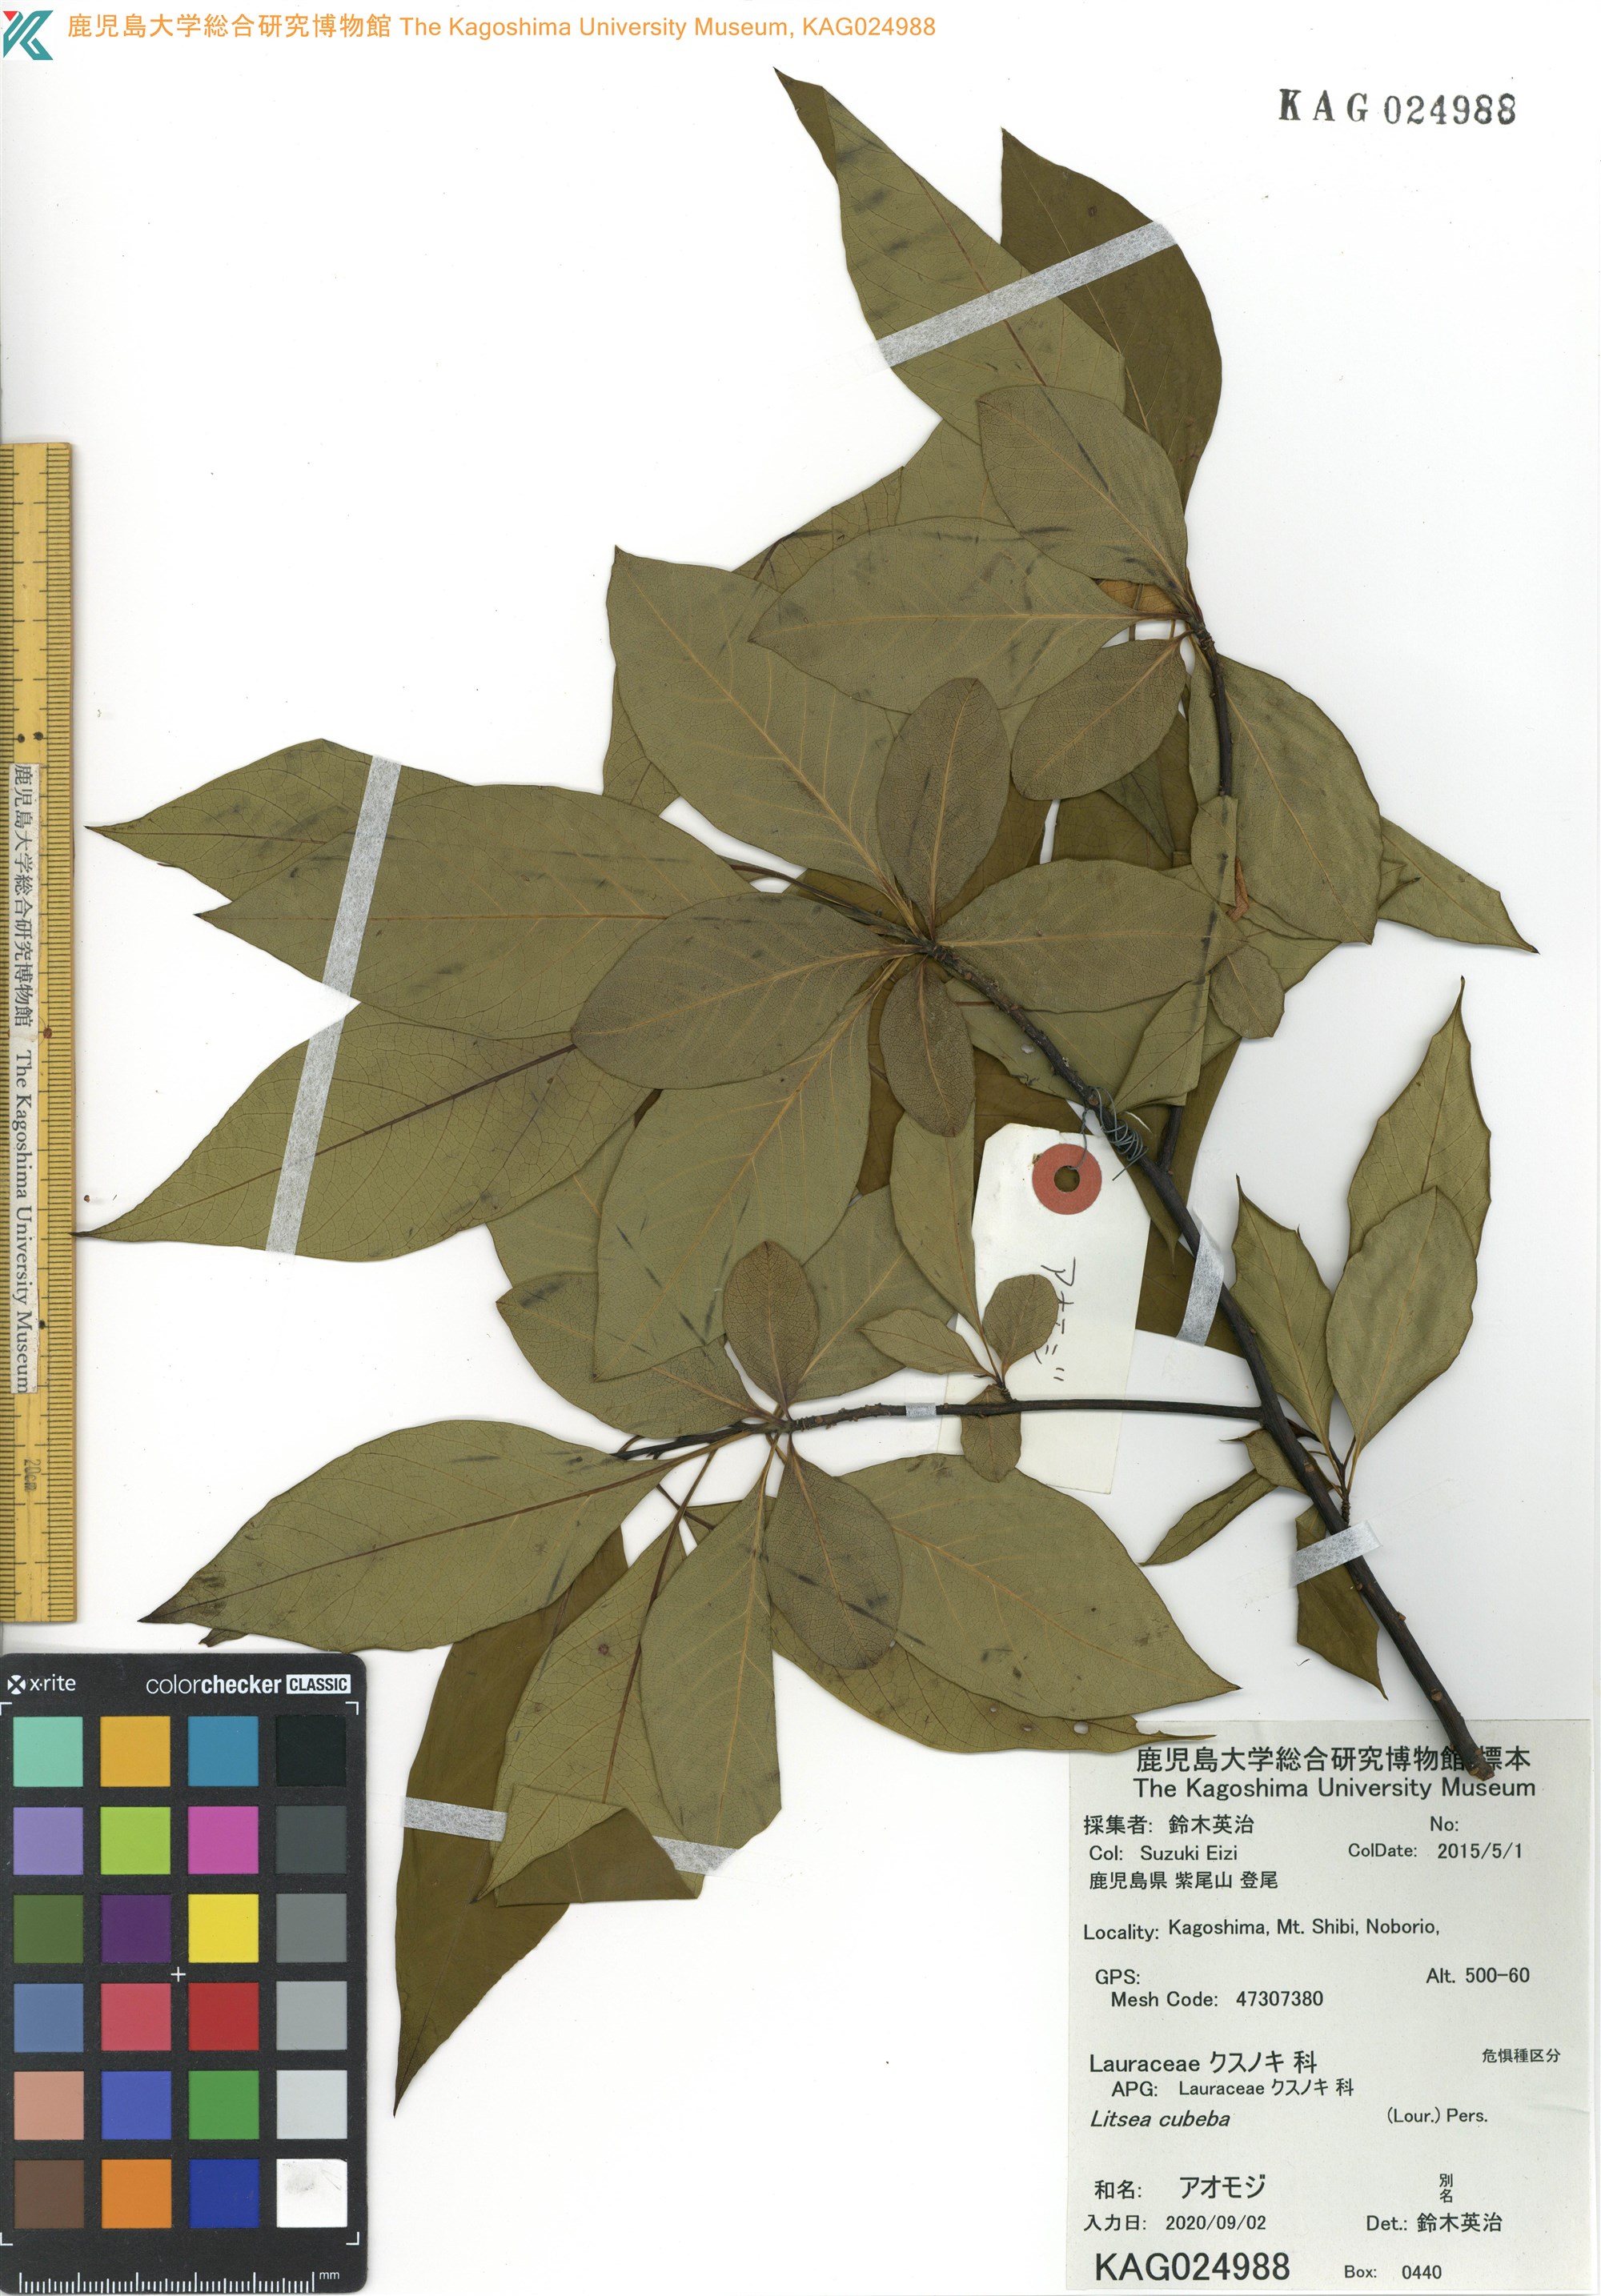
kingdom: Plantae
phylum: Tracheophyta
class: Magnoliopsida
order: Laurales
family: Lauraceae
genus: Litsea
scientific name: Litsea cubeba
